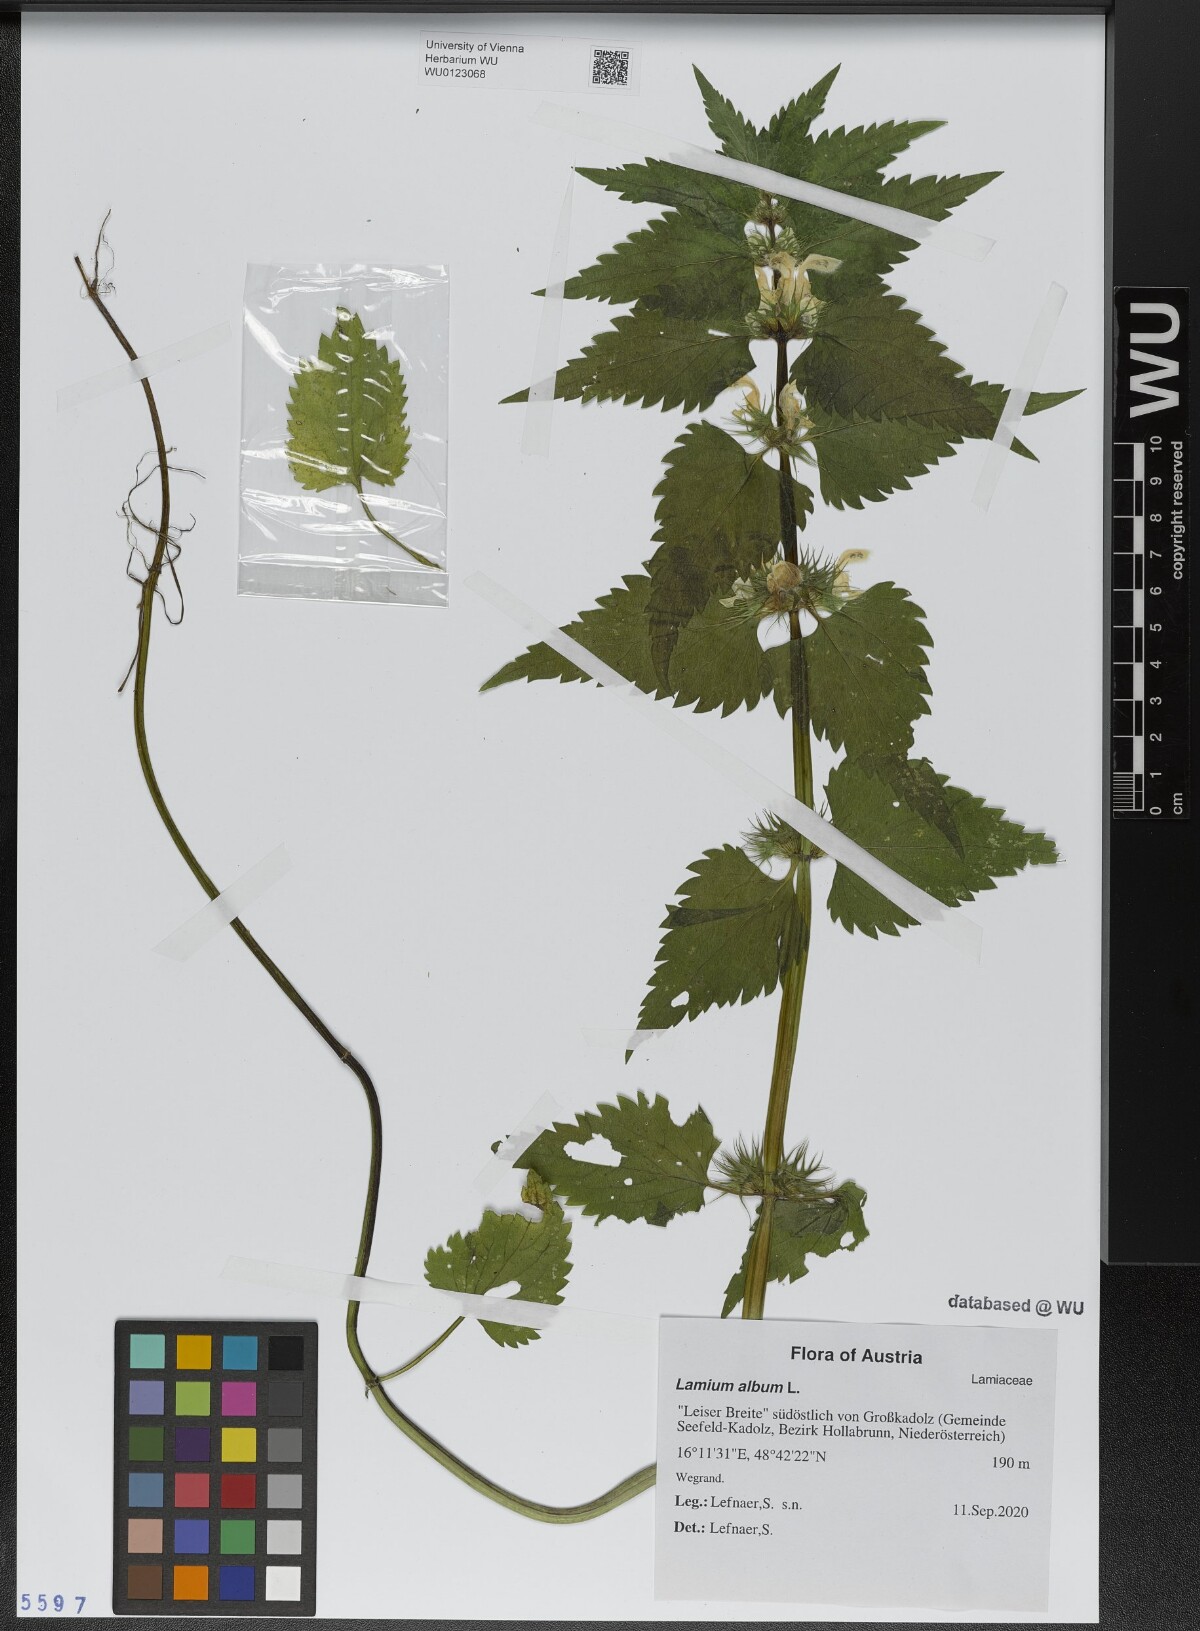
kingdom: Plantae
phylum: Tracheophyta
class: Magnoliopsida
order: Lamiales
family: Lamiaceae
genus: Lamium
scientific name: Lamium album
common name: White dead-nettle
